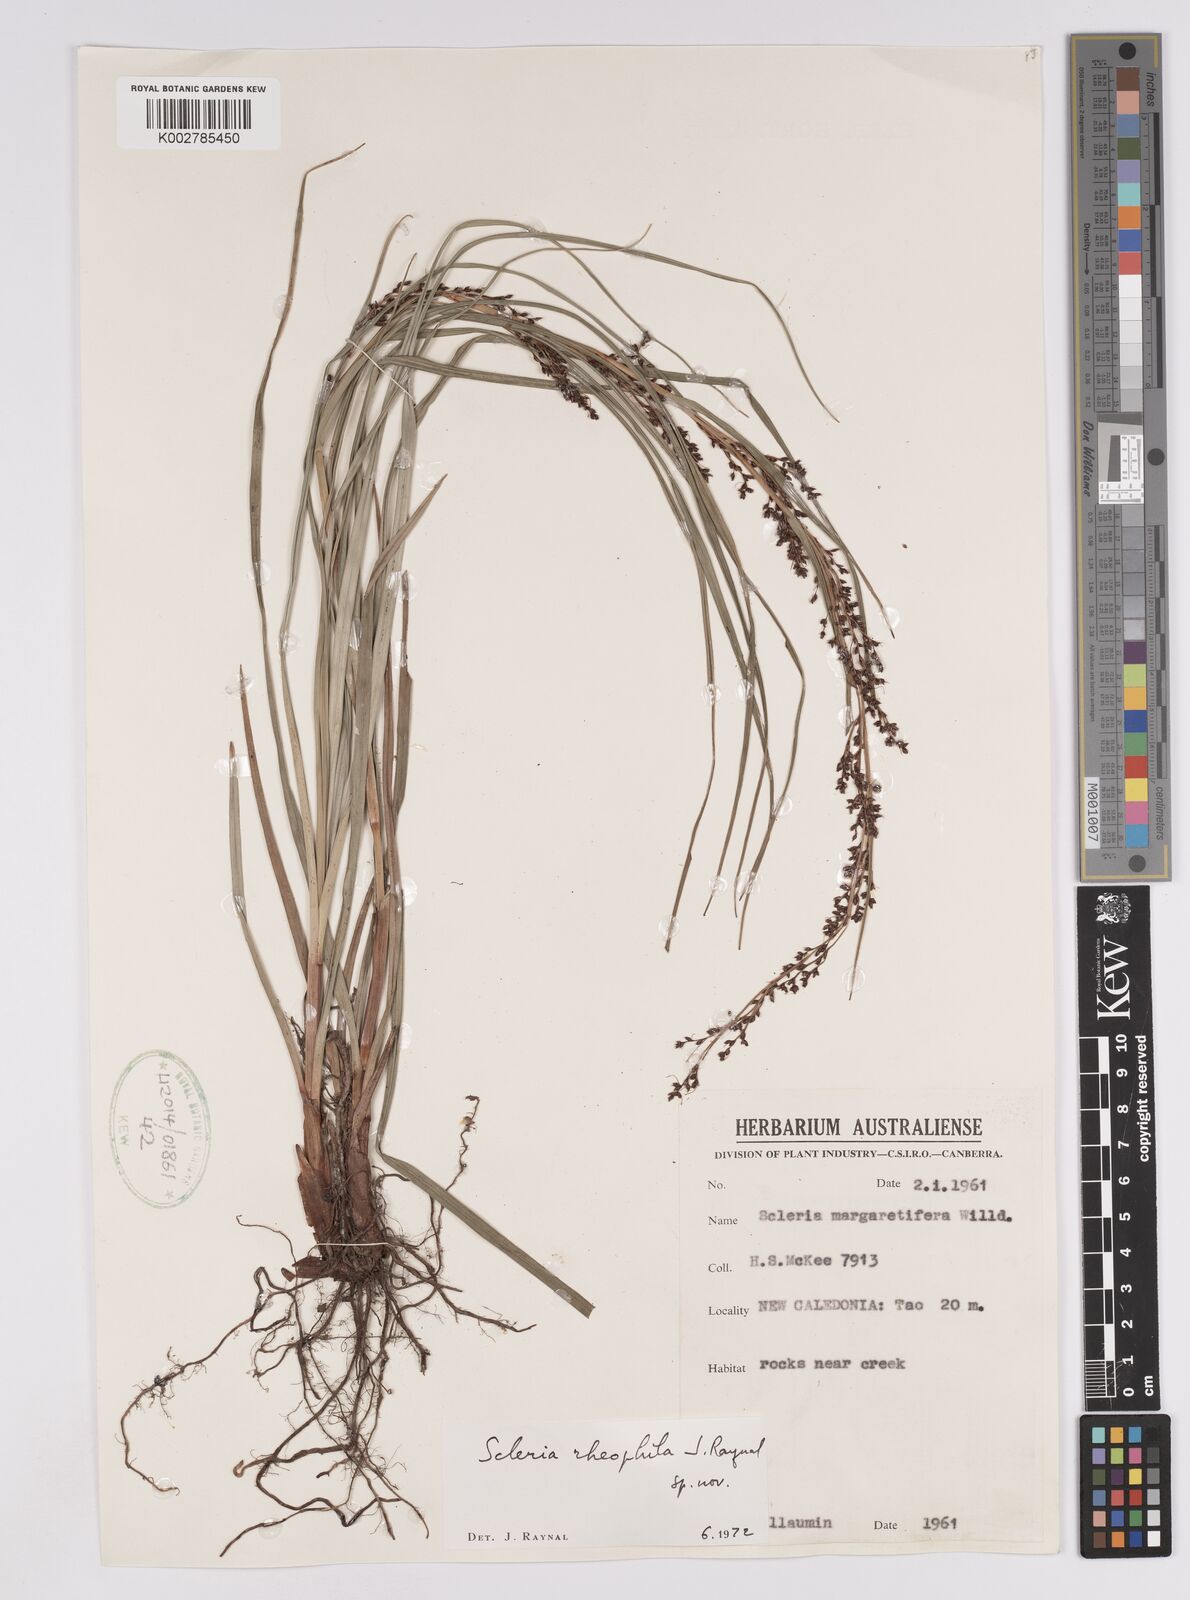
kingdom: Plantae
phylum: Tracheophyta
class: Liliopsida
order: Poales
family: Cyperaceae
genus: Scleria
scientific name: Scleria
